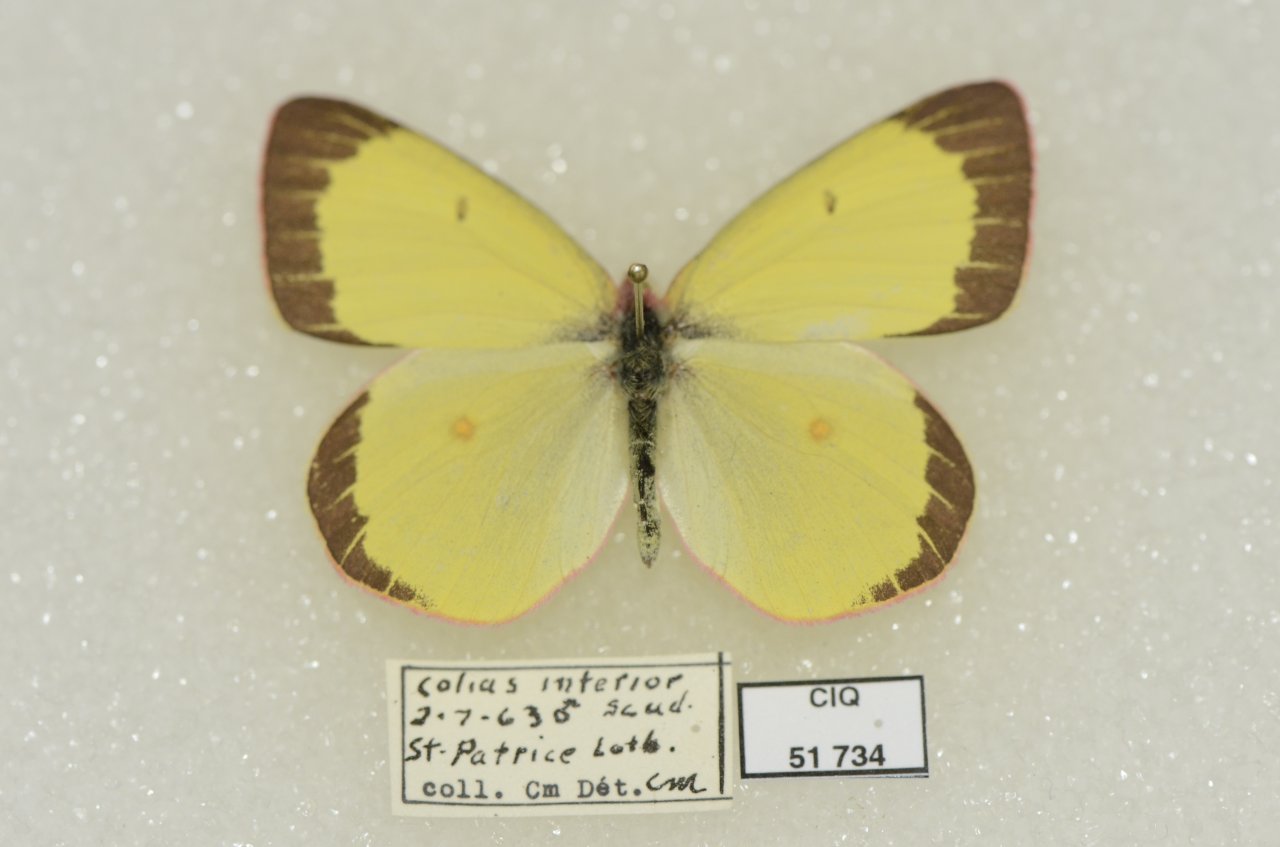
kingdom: Animalia
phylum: Arthropoda
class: Insecta
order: Lepidoptera
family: Pieridae
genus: Colias
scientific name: Colias interior
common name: Pink-edged Sulphur
